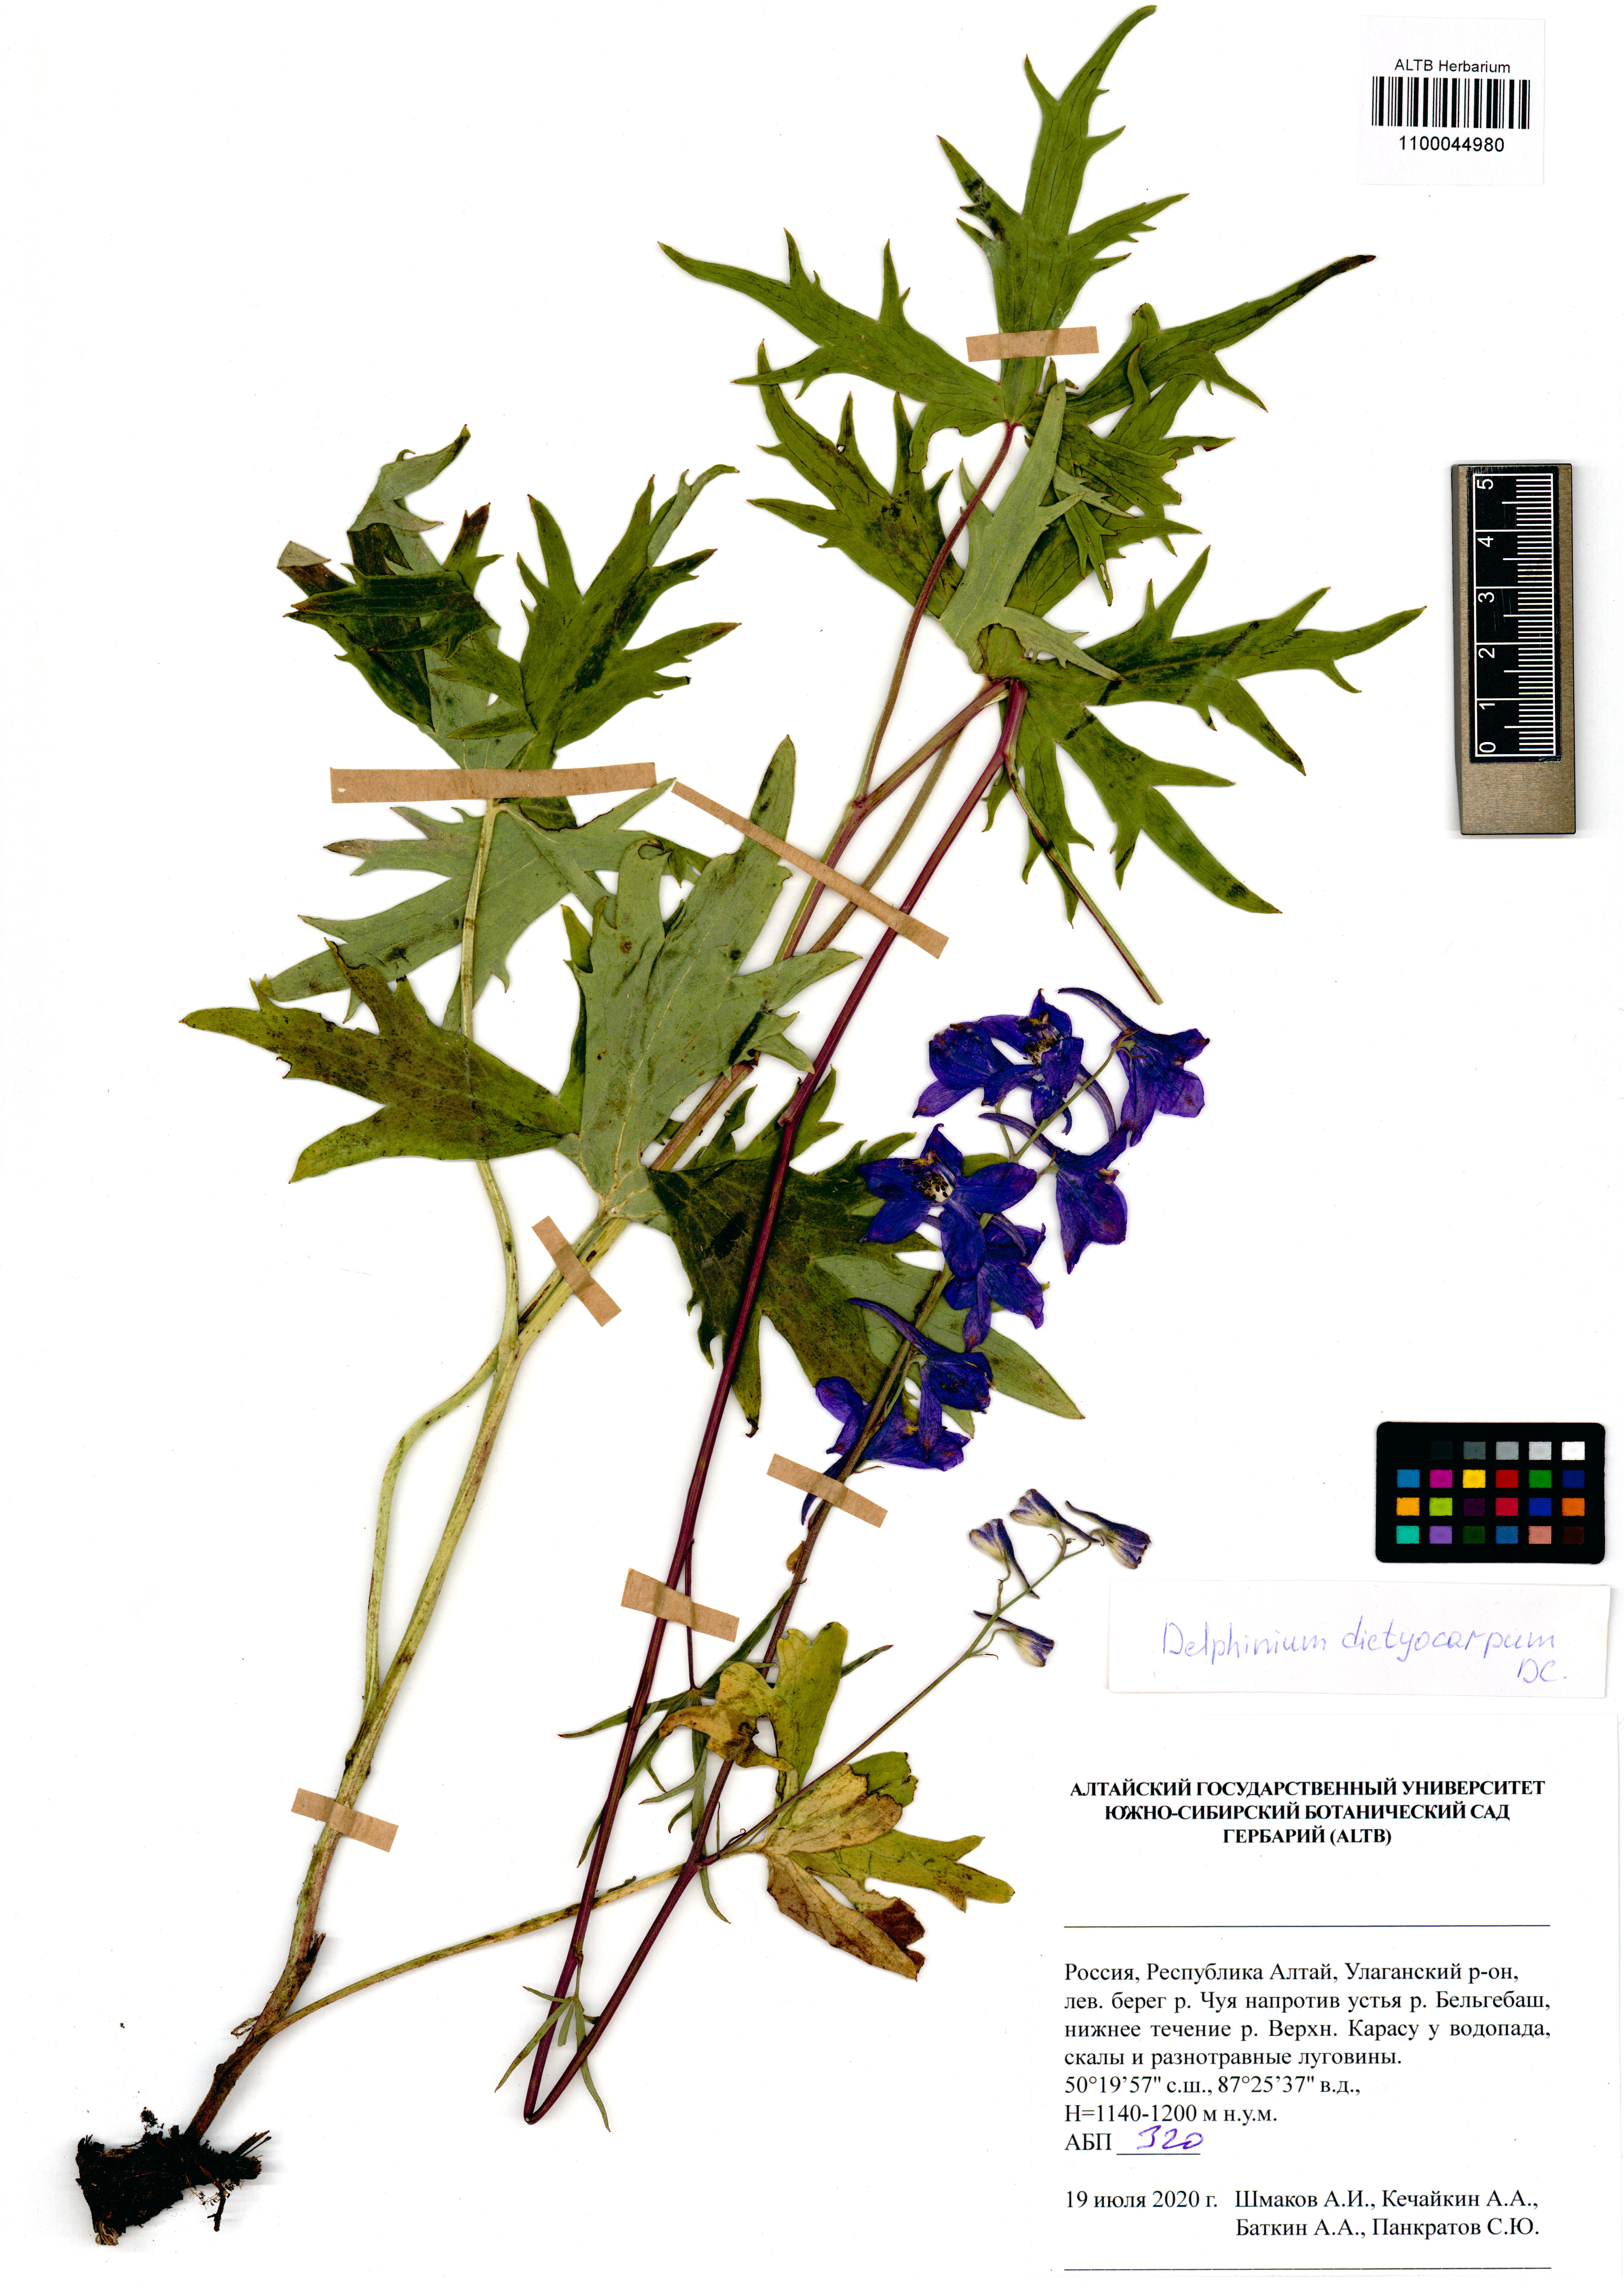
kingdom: Plantae
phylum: Tracheophyta
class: Magnoliopsida
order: Ranunculales
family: Ranunculaceae
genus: Delphinium
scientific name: Delphinium dictyocarpum
